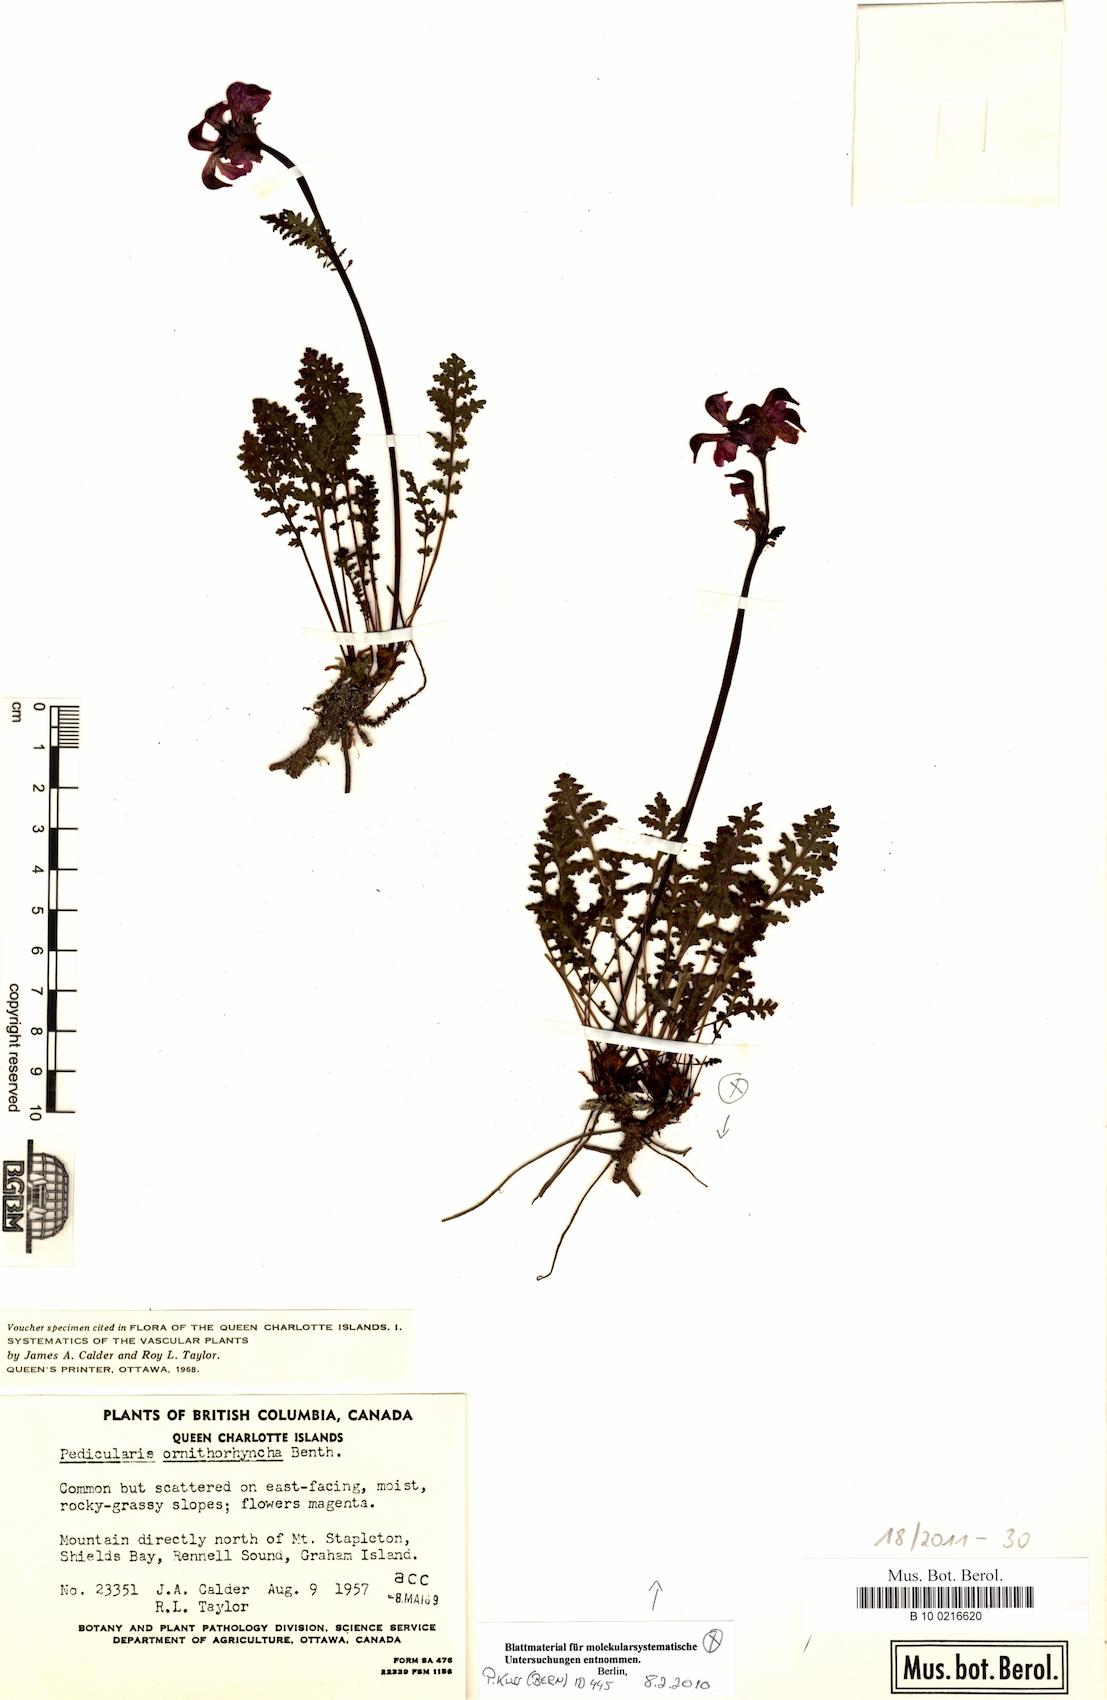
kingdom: Plantae
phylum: Tracheophyta
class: Magnoliopsida
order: Lamiales
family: Orobanchaceae
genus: Pedicularis
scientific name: Pedicularis ornithorhynchos
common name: Bird's-beak lousewort
